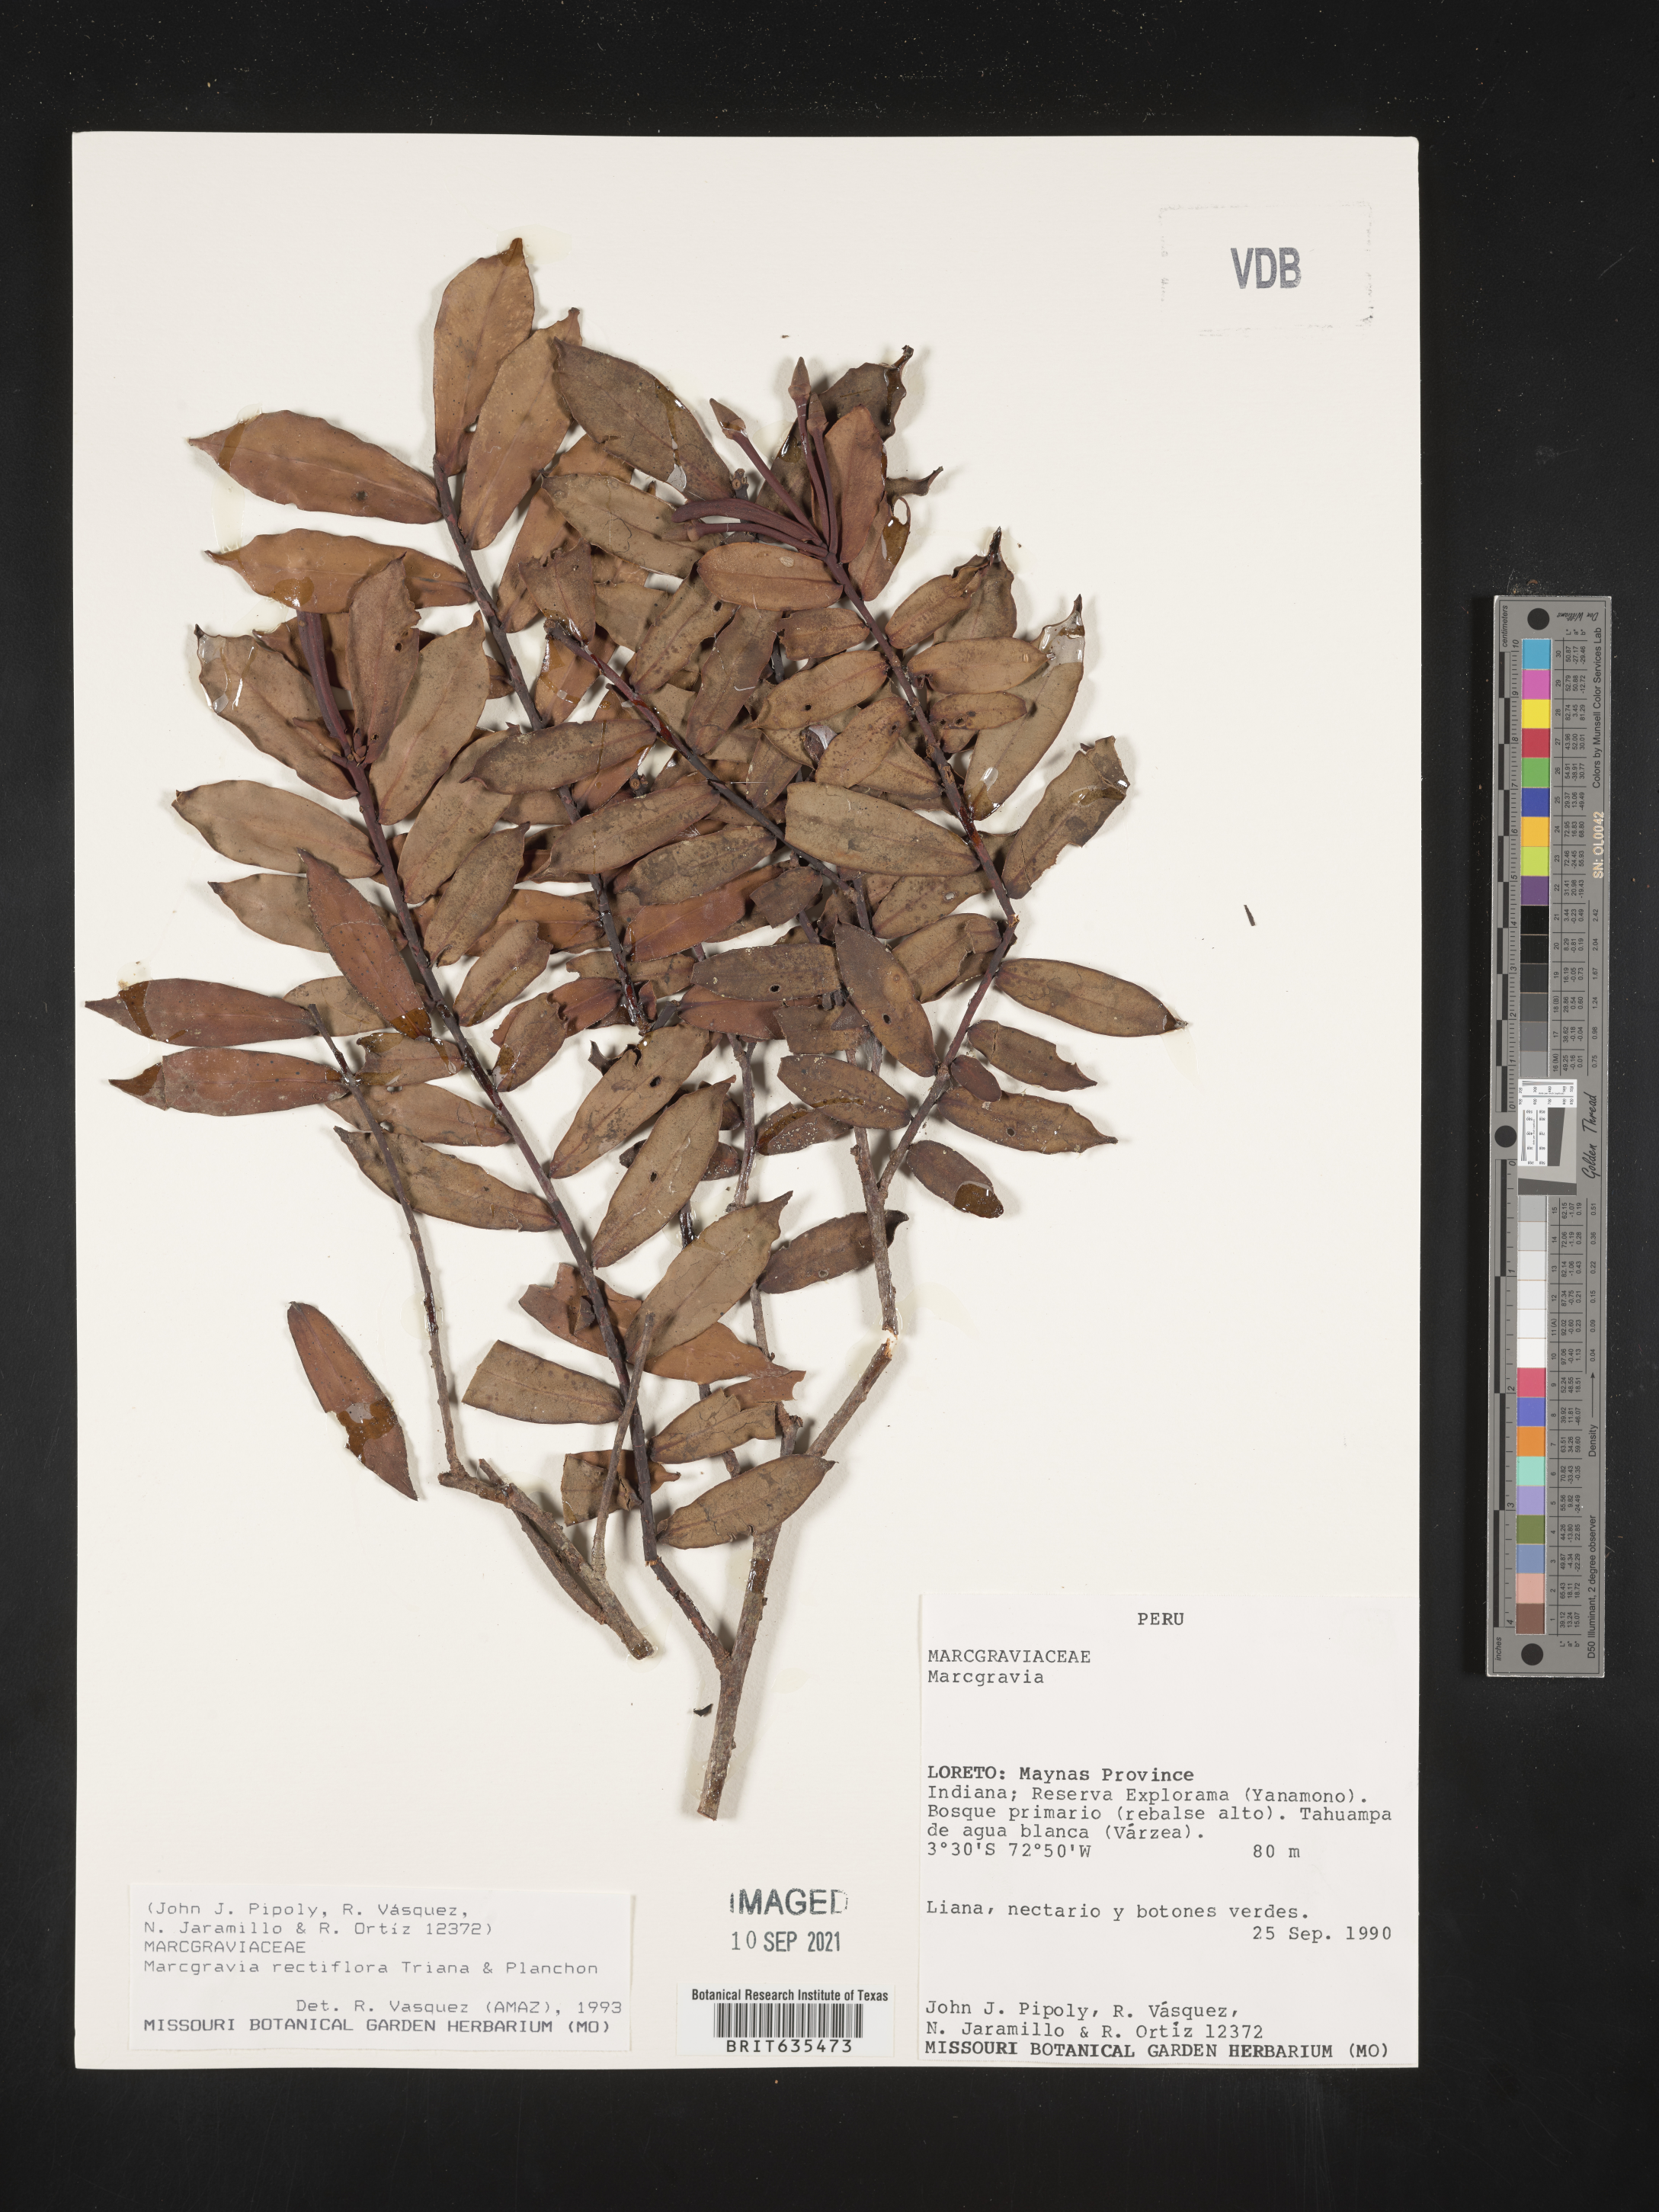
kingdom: Plantae
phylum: Tracheophyta
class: Magnoliopsida
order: Ericales
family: Marcgraviaceae
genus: Marcgravia
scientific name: Marcgravia
